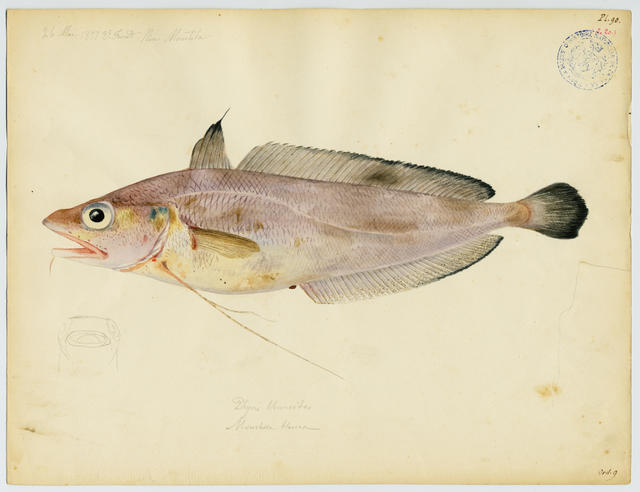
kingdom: Animalia
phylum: Chordata
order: Gadiformes
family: Phycidae
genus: Phycis
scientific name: Phycis blennoides
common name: Forked hake
